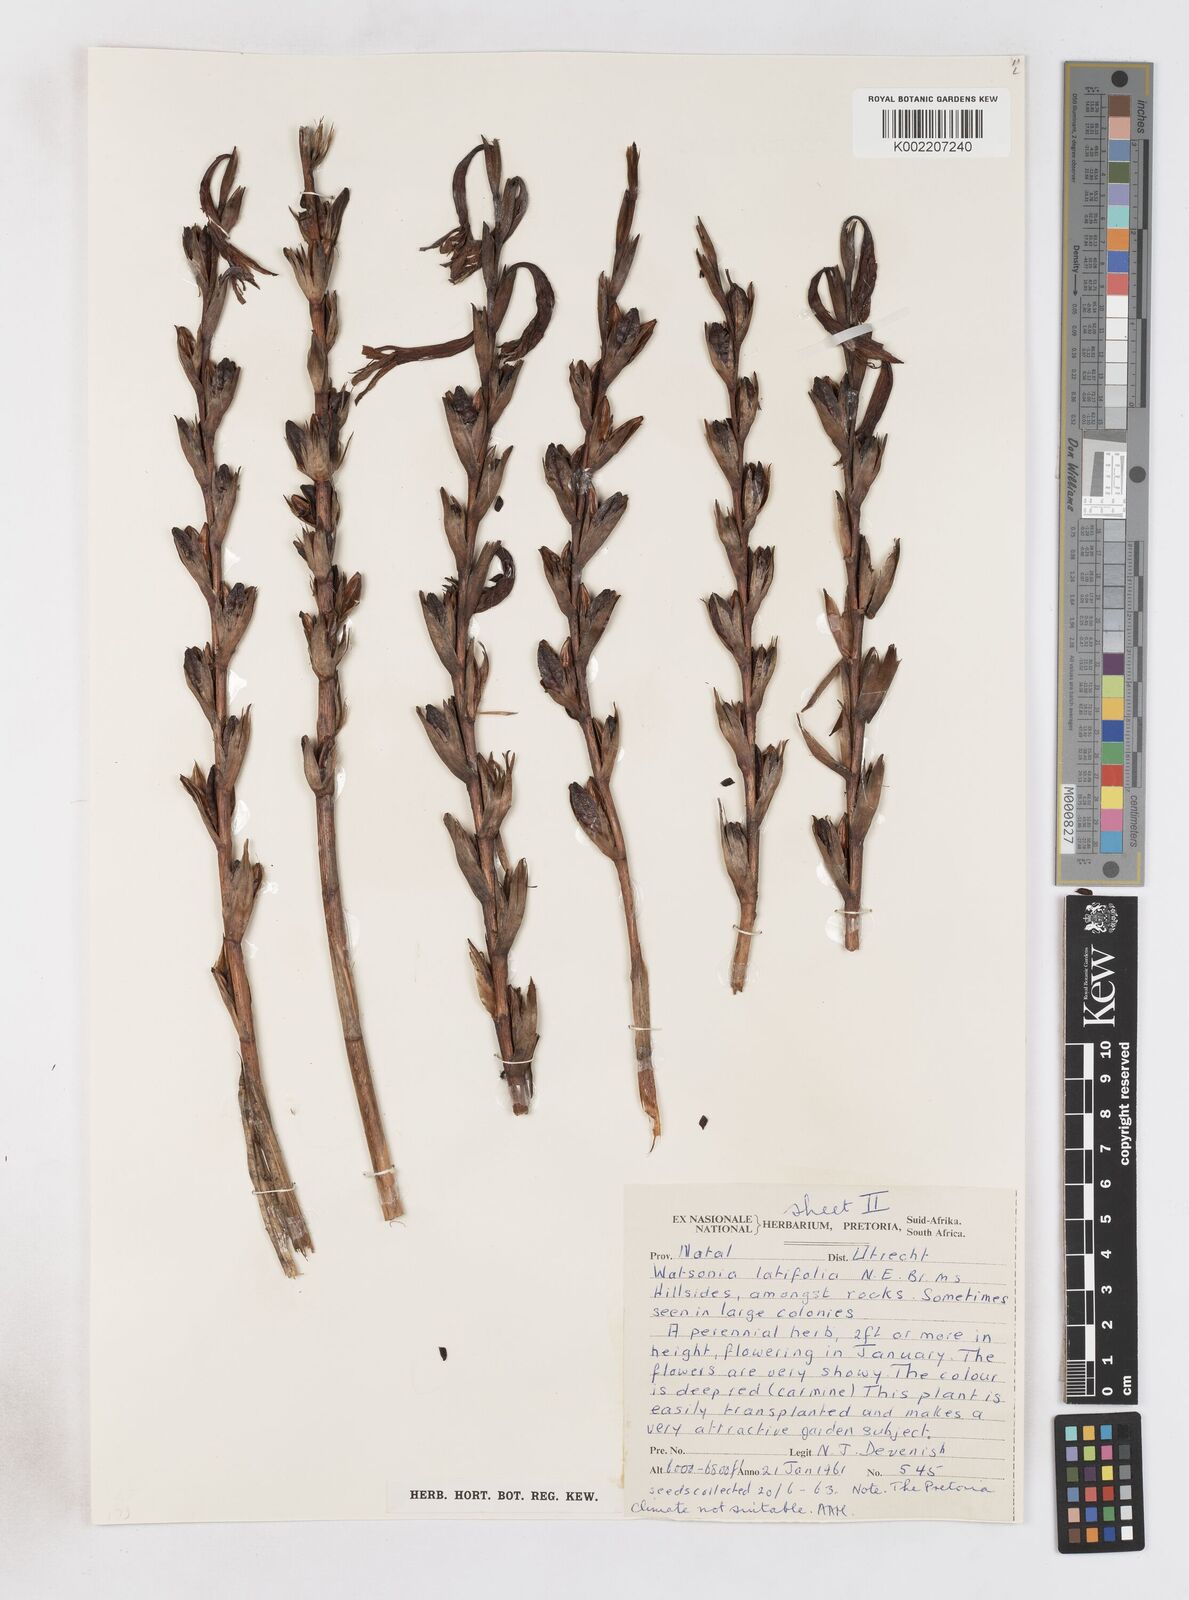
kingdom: Plantae
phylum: Tracheophyta
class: Liliopsida
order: Asparagales
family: Iridaceae
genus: Watsonia
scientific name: Watsonia latifolia
